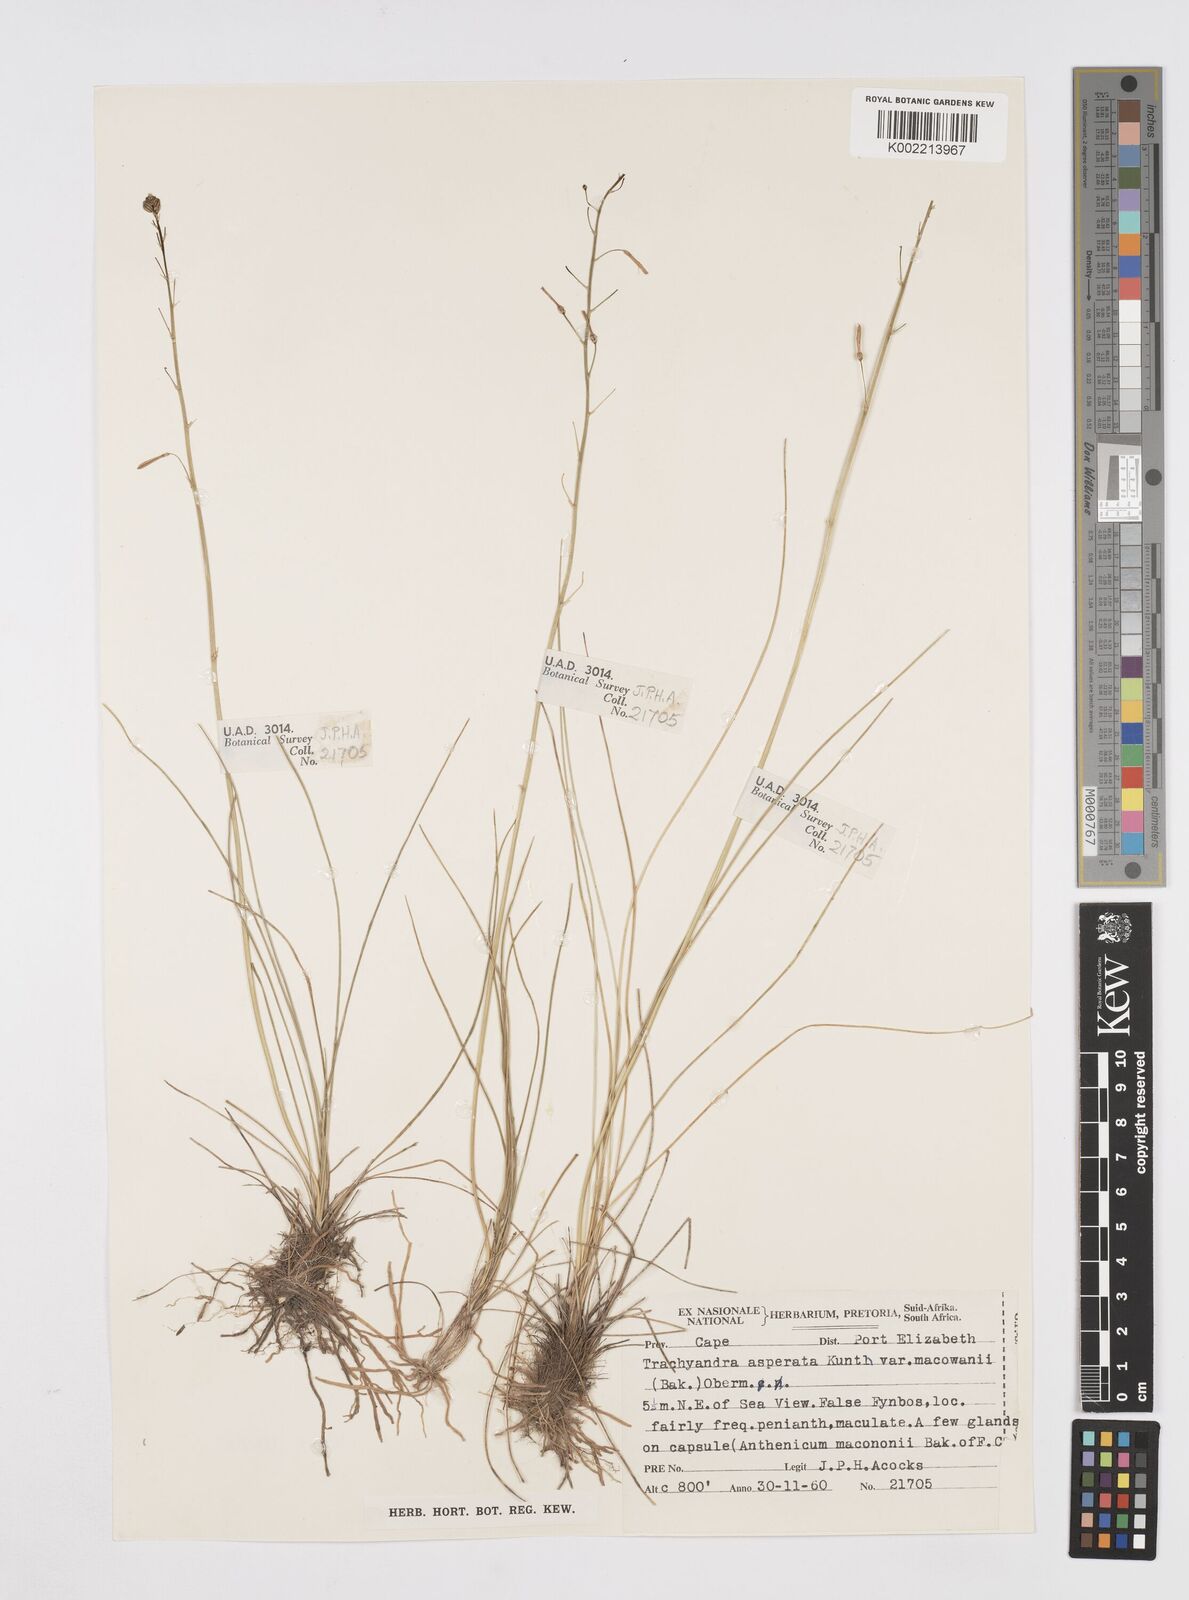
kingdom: Plantae
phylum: Tracheophyta
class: Liliopsida
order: Asparagales
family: Asphodelaceae
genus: Trachyandra
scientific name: Trachyandra asperata
